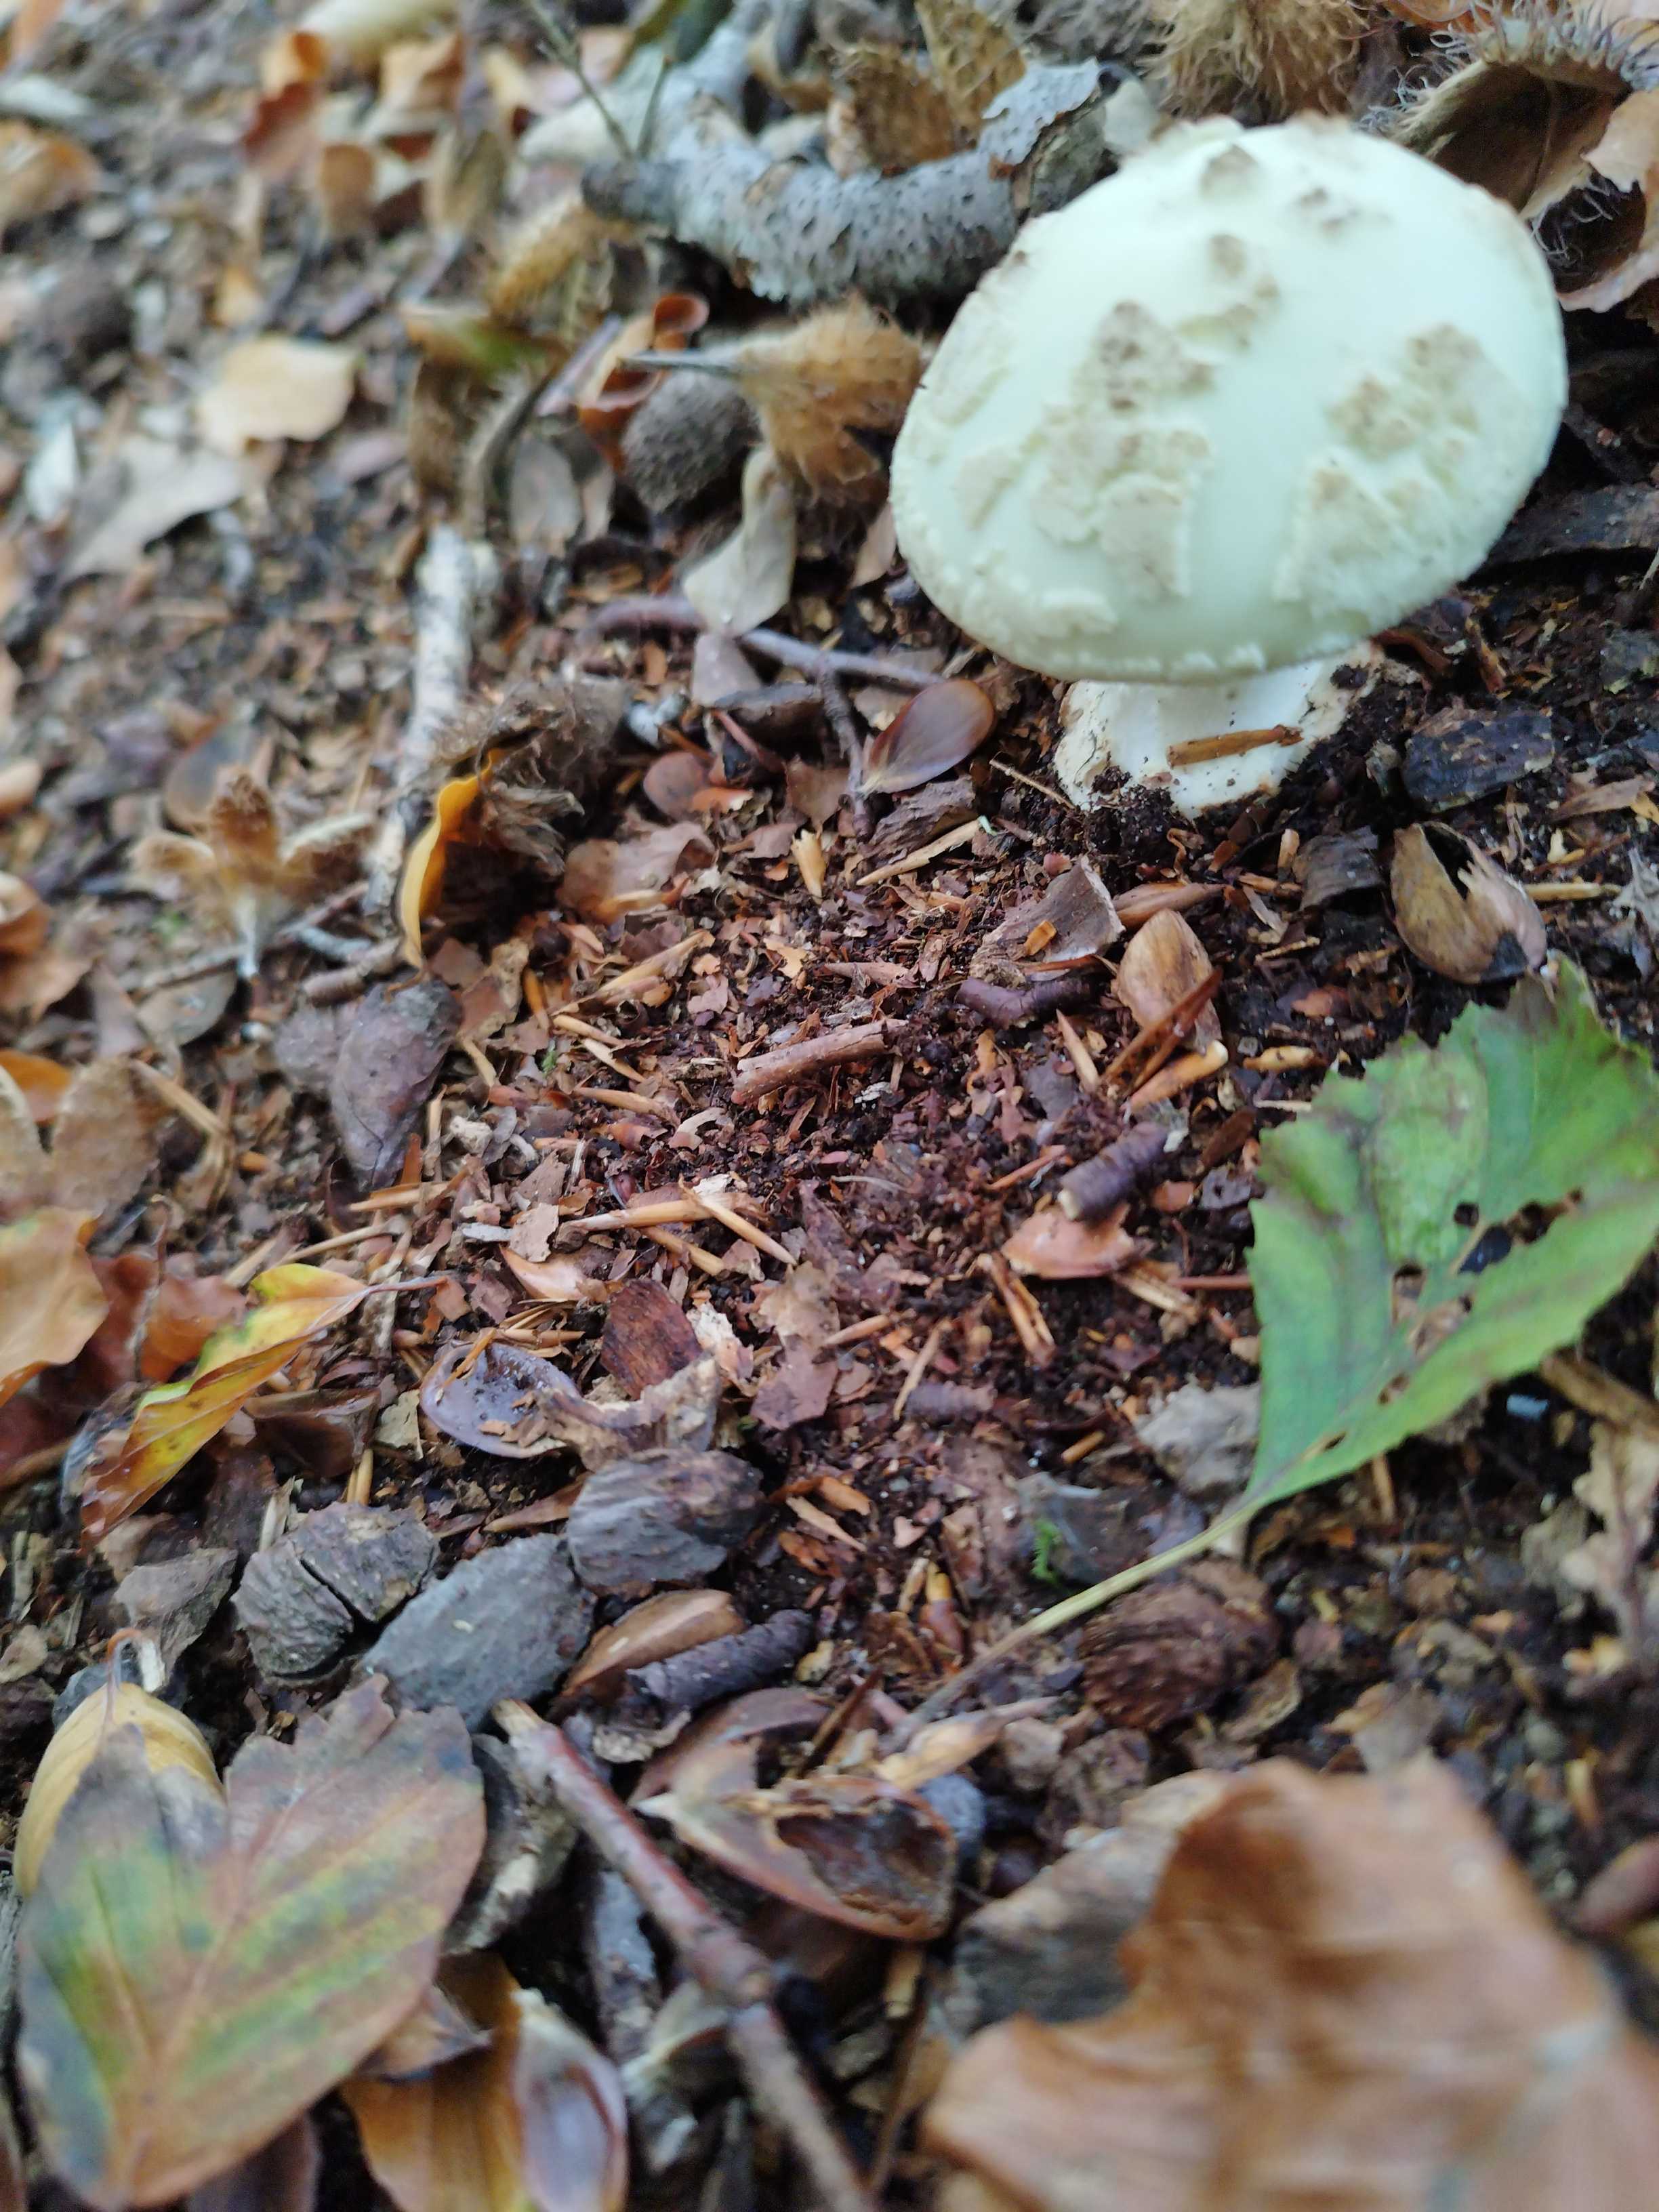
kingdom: Fungi
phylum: Basidiomycota
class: Agaricomycetes
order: Agaricales
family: Amanitaceae
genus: Amanita
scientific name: Amanita citrina
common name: kugleknoldet fluesvamp
